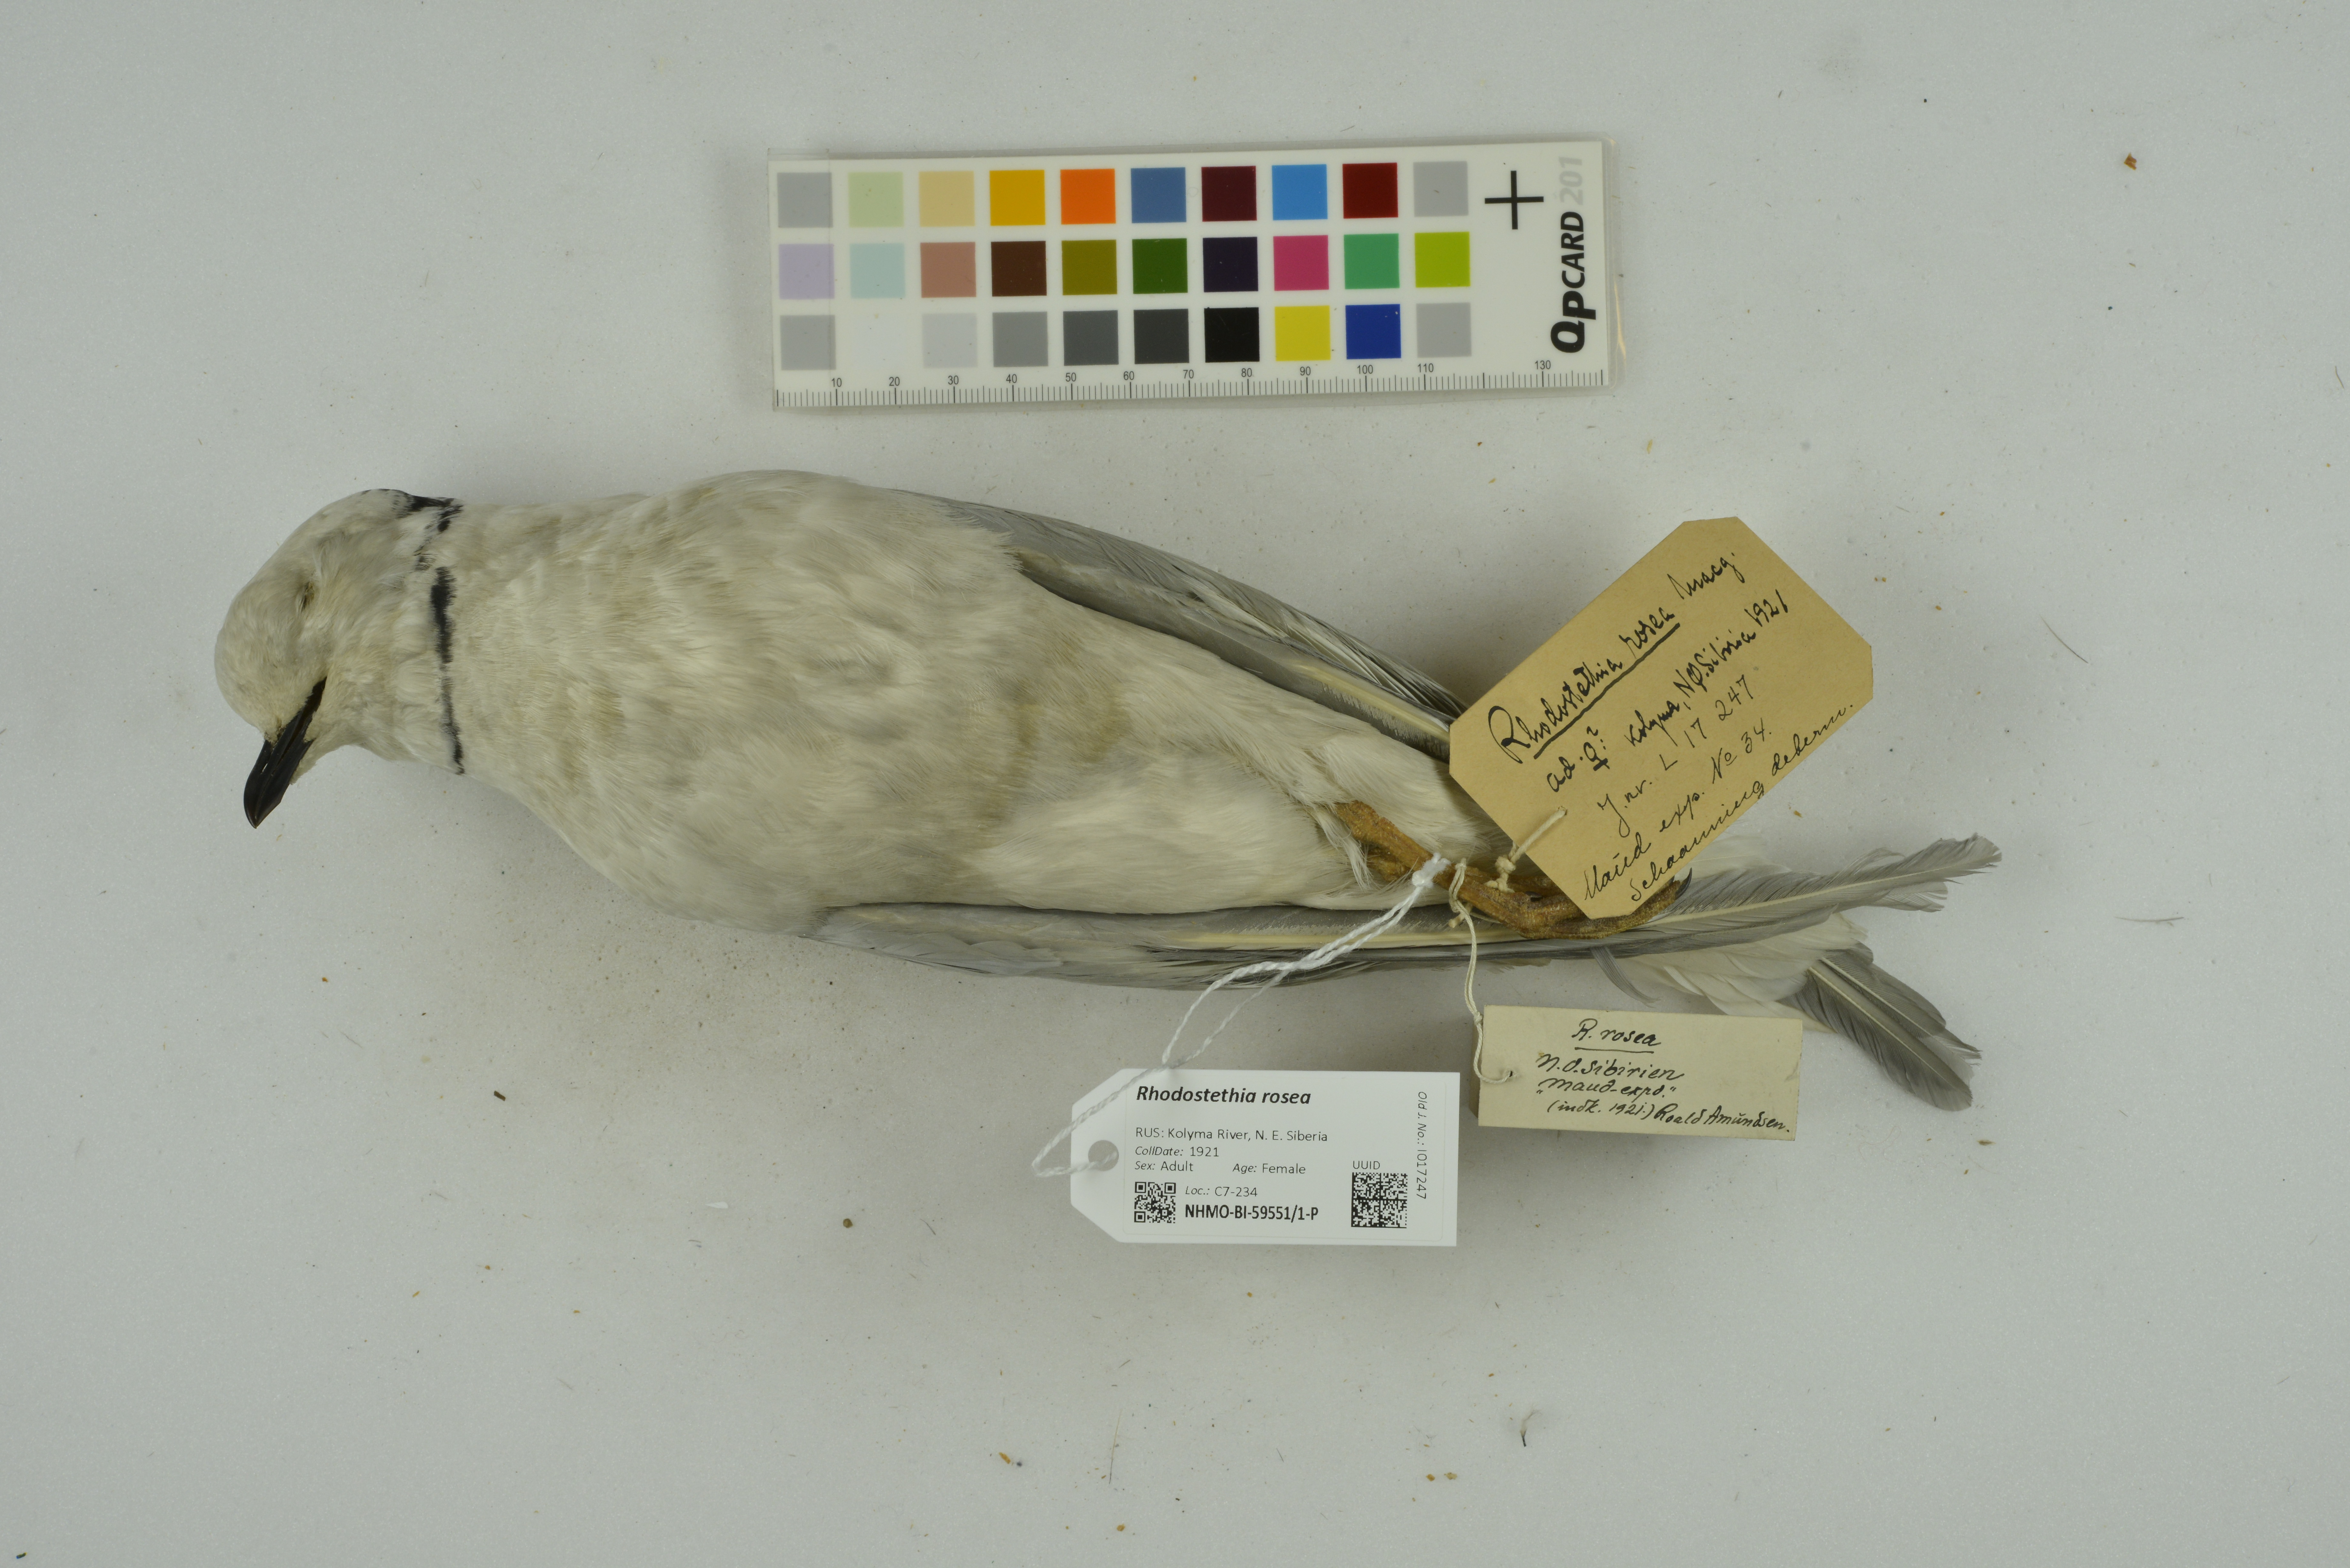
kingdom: Animalia
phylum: Chordata
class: Aves
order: Charadriiformes
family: Laridae
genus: Rhodostethia
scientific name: Rhodostethia rosea
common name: Ross's gull
